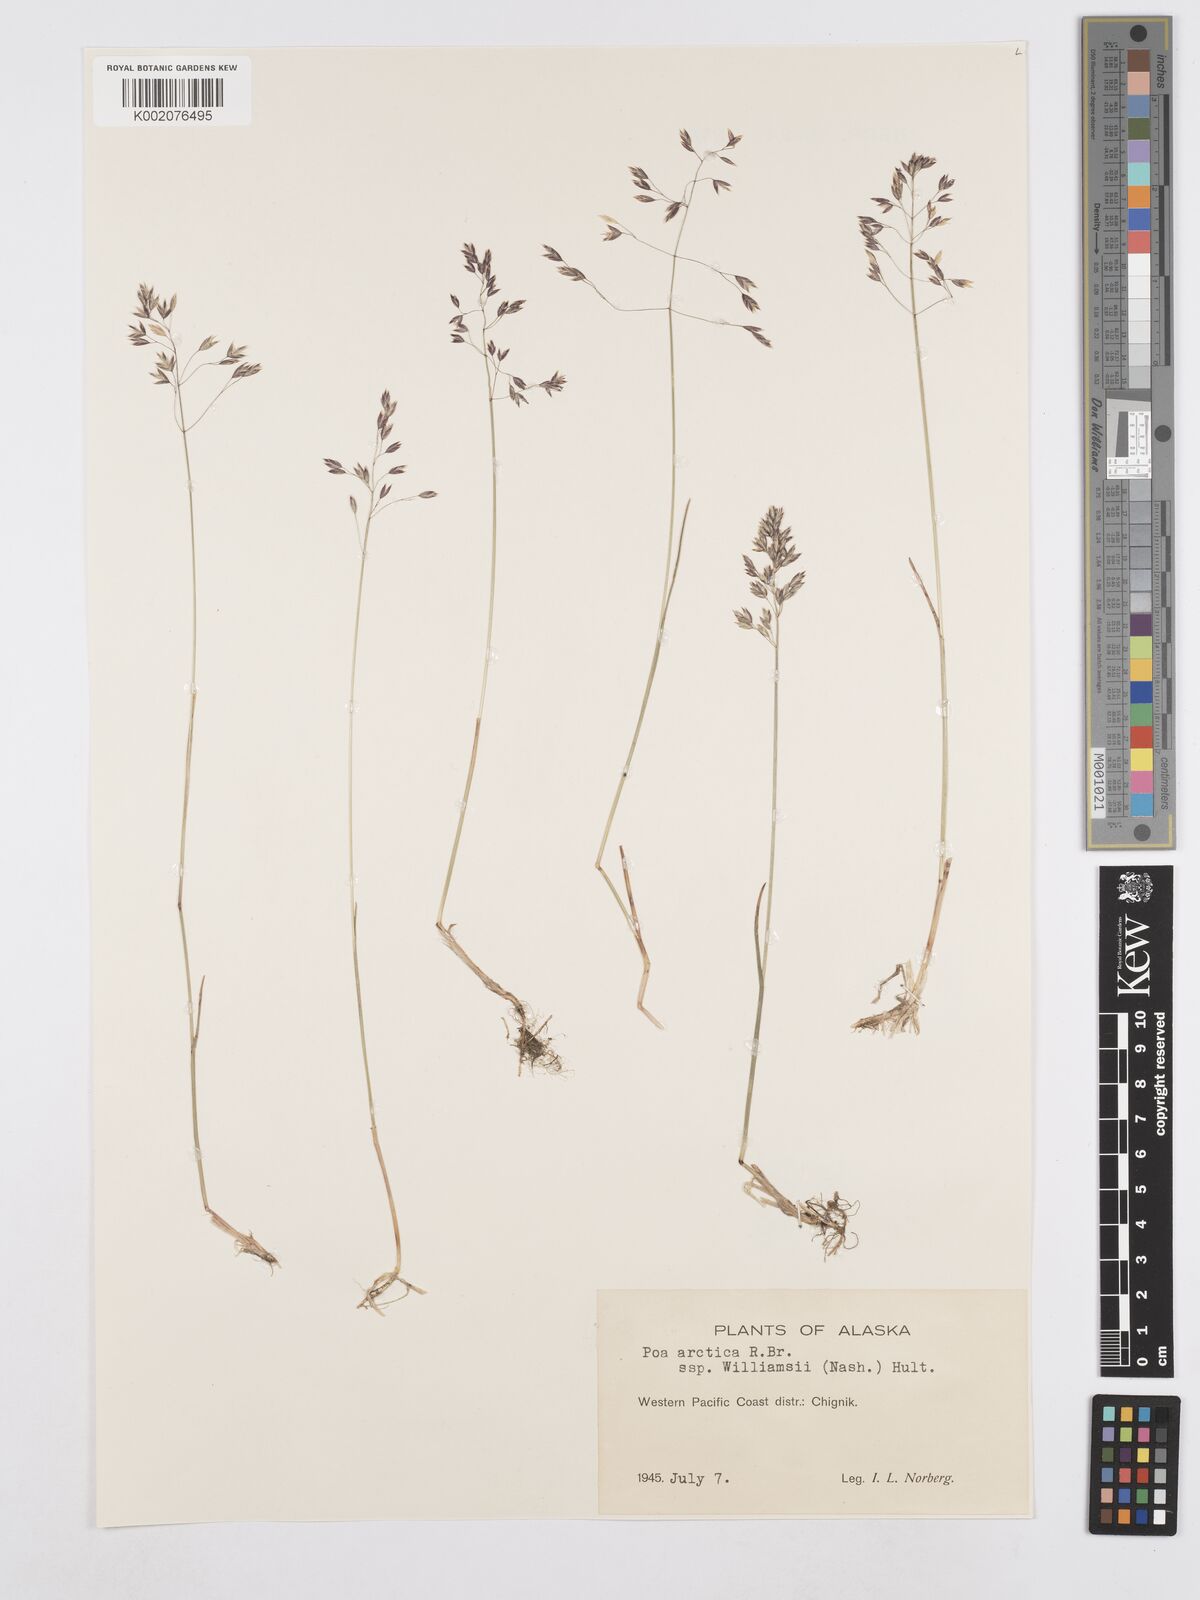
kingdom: Plantae
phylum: Tracheophyta
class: Liliopsida
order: Poales
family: Poaceae
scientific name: Poaceae
